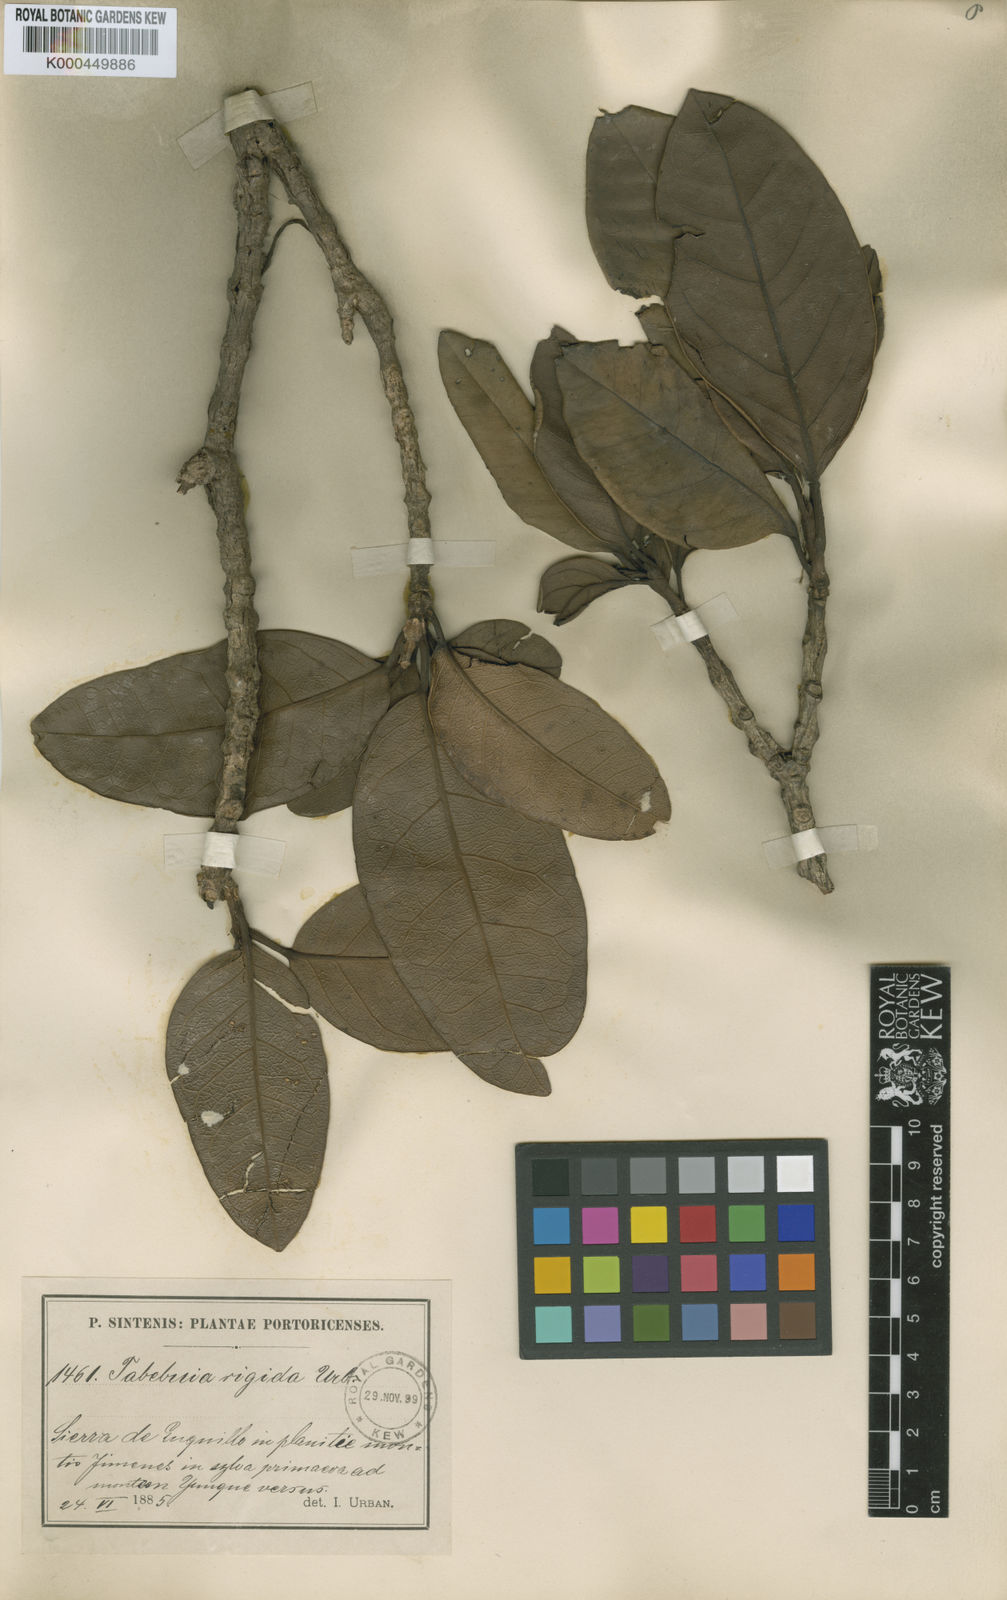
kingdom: Plantae
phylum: Tracheophyta
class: Magnoliopsida
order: Lamiales
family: Bignoniaceae
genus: Tabebuia
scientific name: Tabebuia rigida
